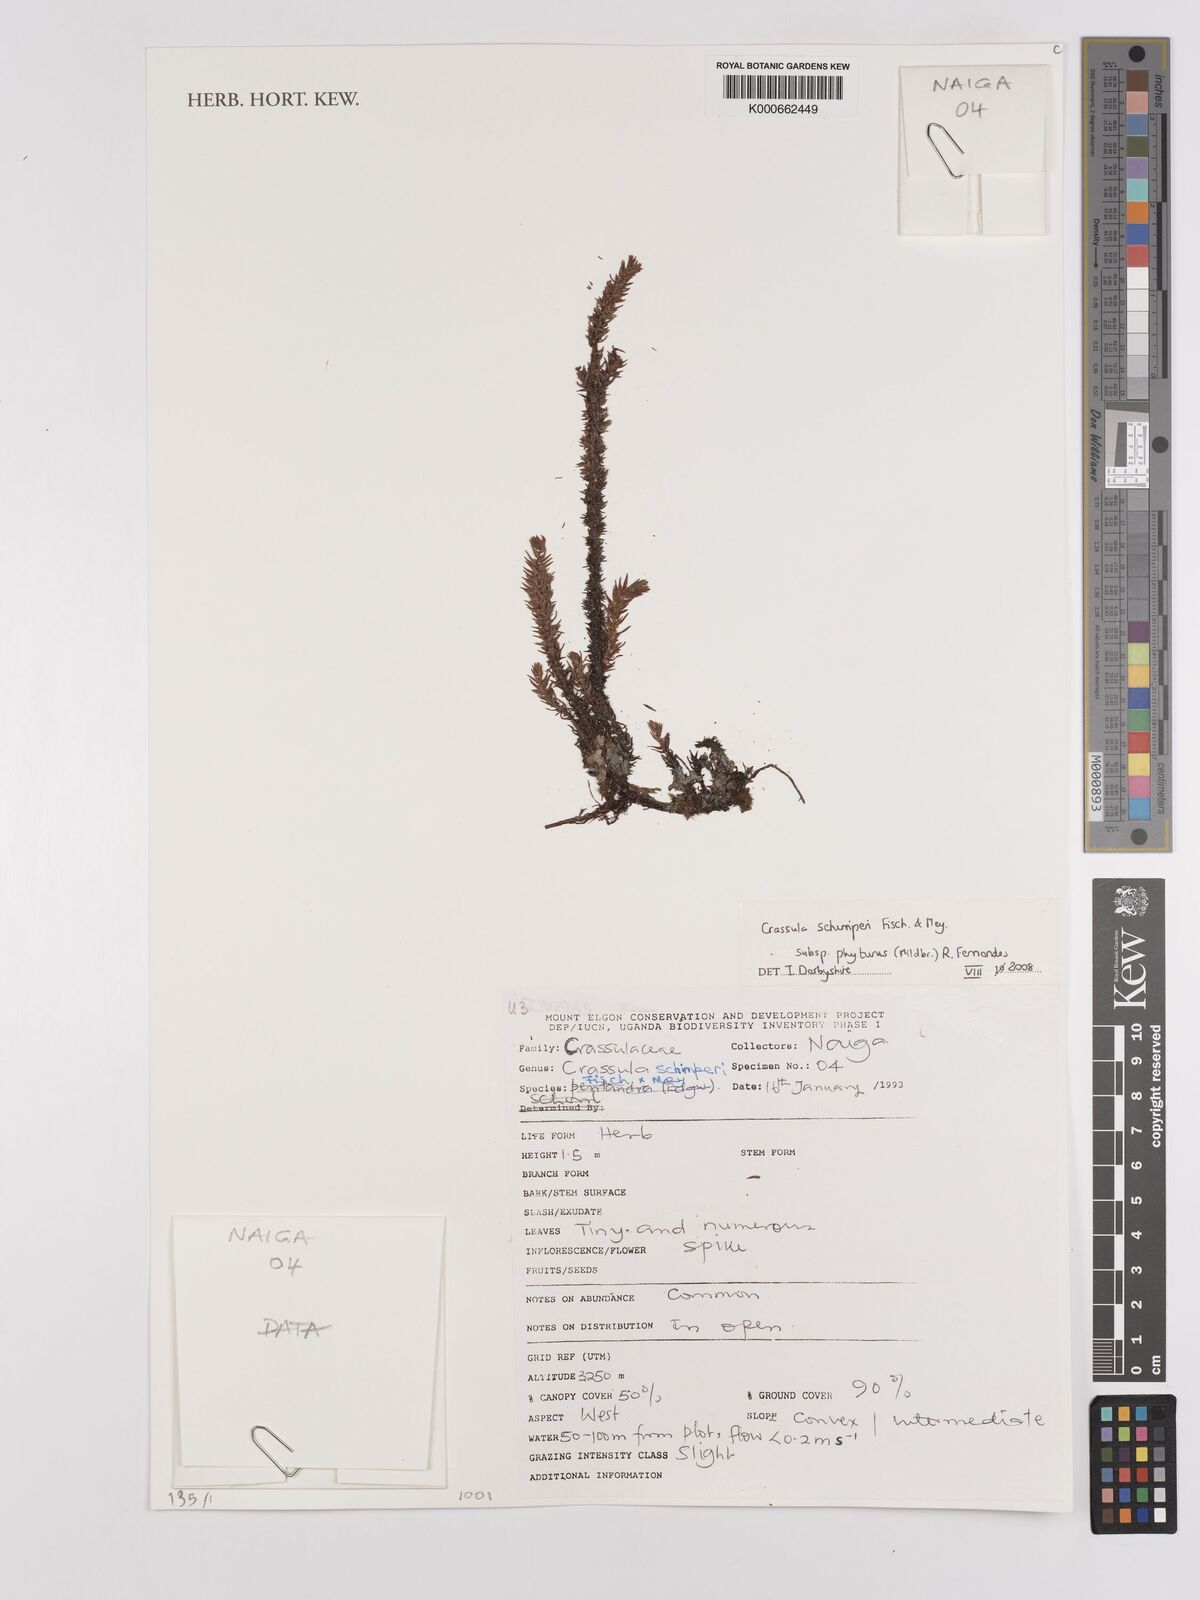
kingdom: Plantae
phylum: Tracheophyta
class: Magnoliopsida
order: Saxifragales
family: Crassulaceae
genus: Crassula
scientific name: Crassula schimperi
